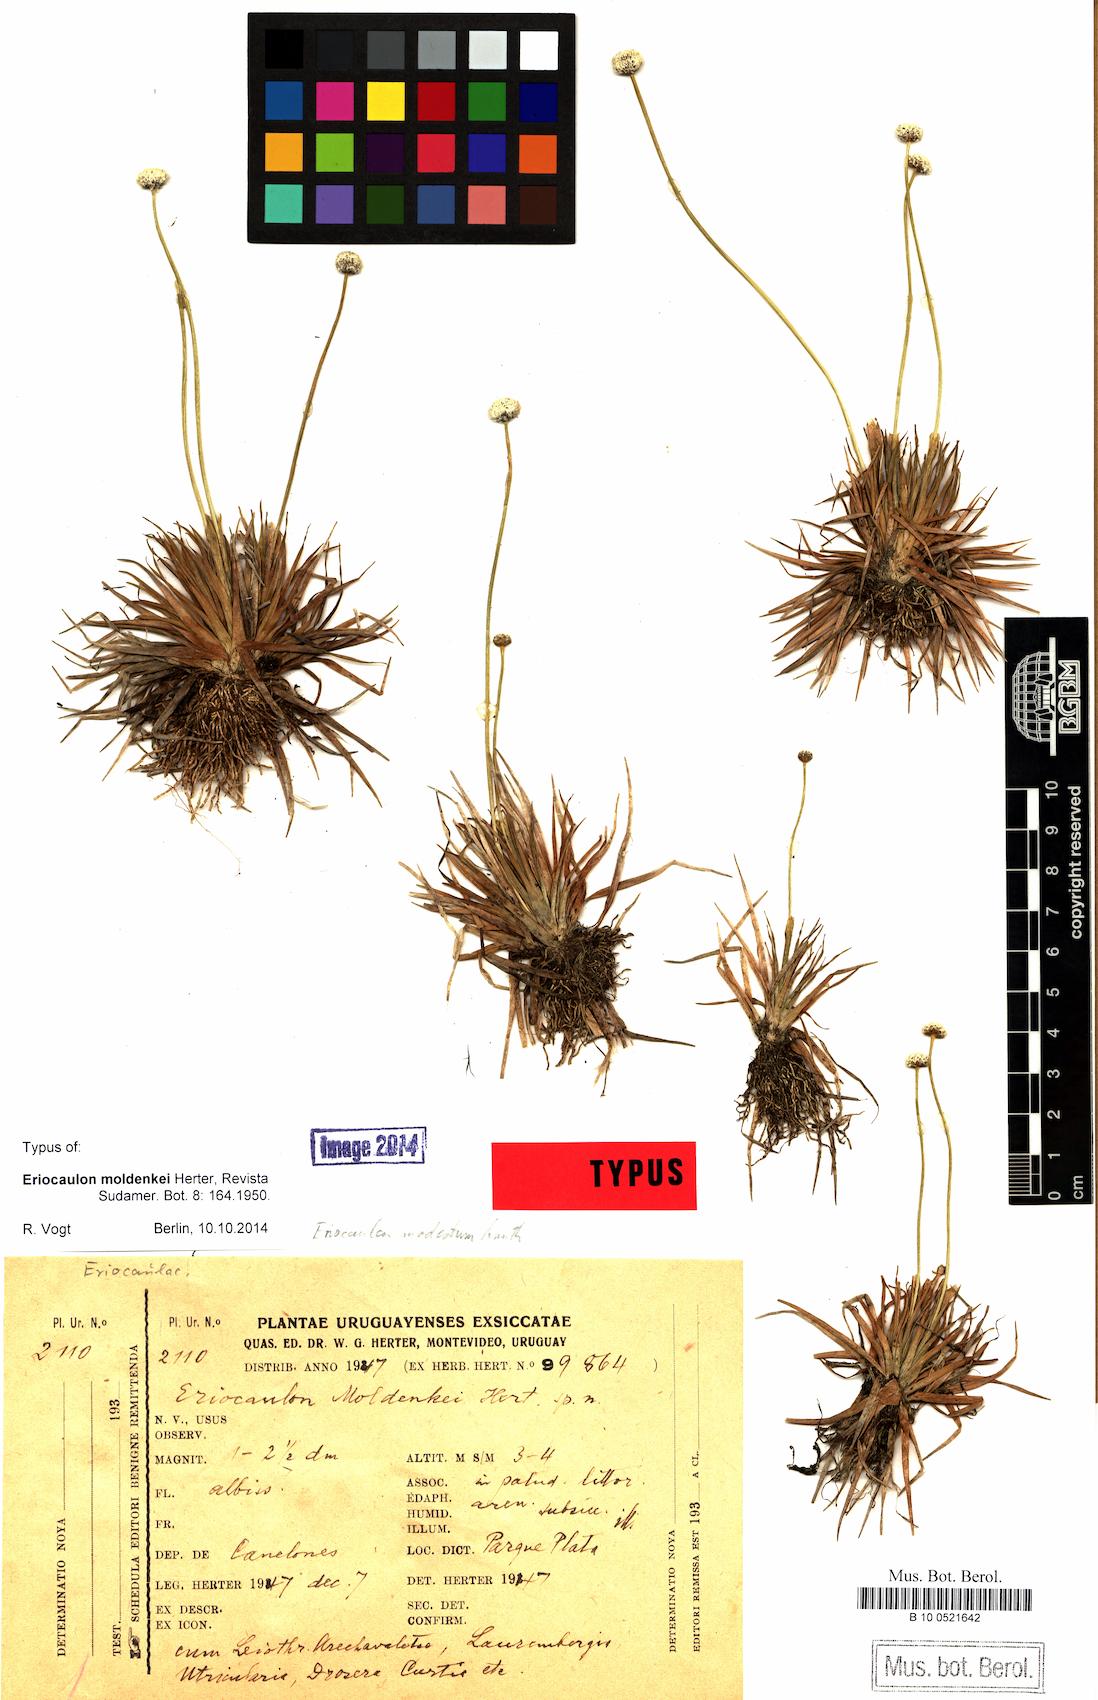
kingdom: Plantae
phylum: Tracheophyta
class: Liliopsida
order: Poales
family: Eriocaulaceae
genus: Eriocaulon
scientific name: Eriocaulon modestum
